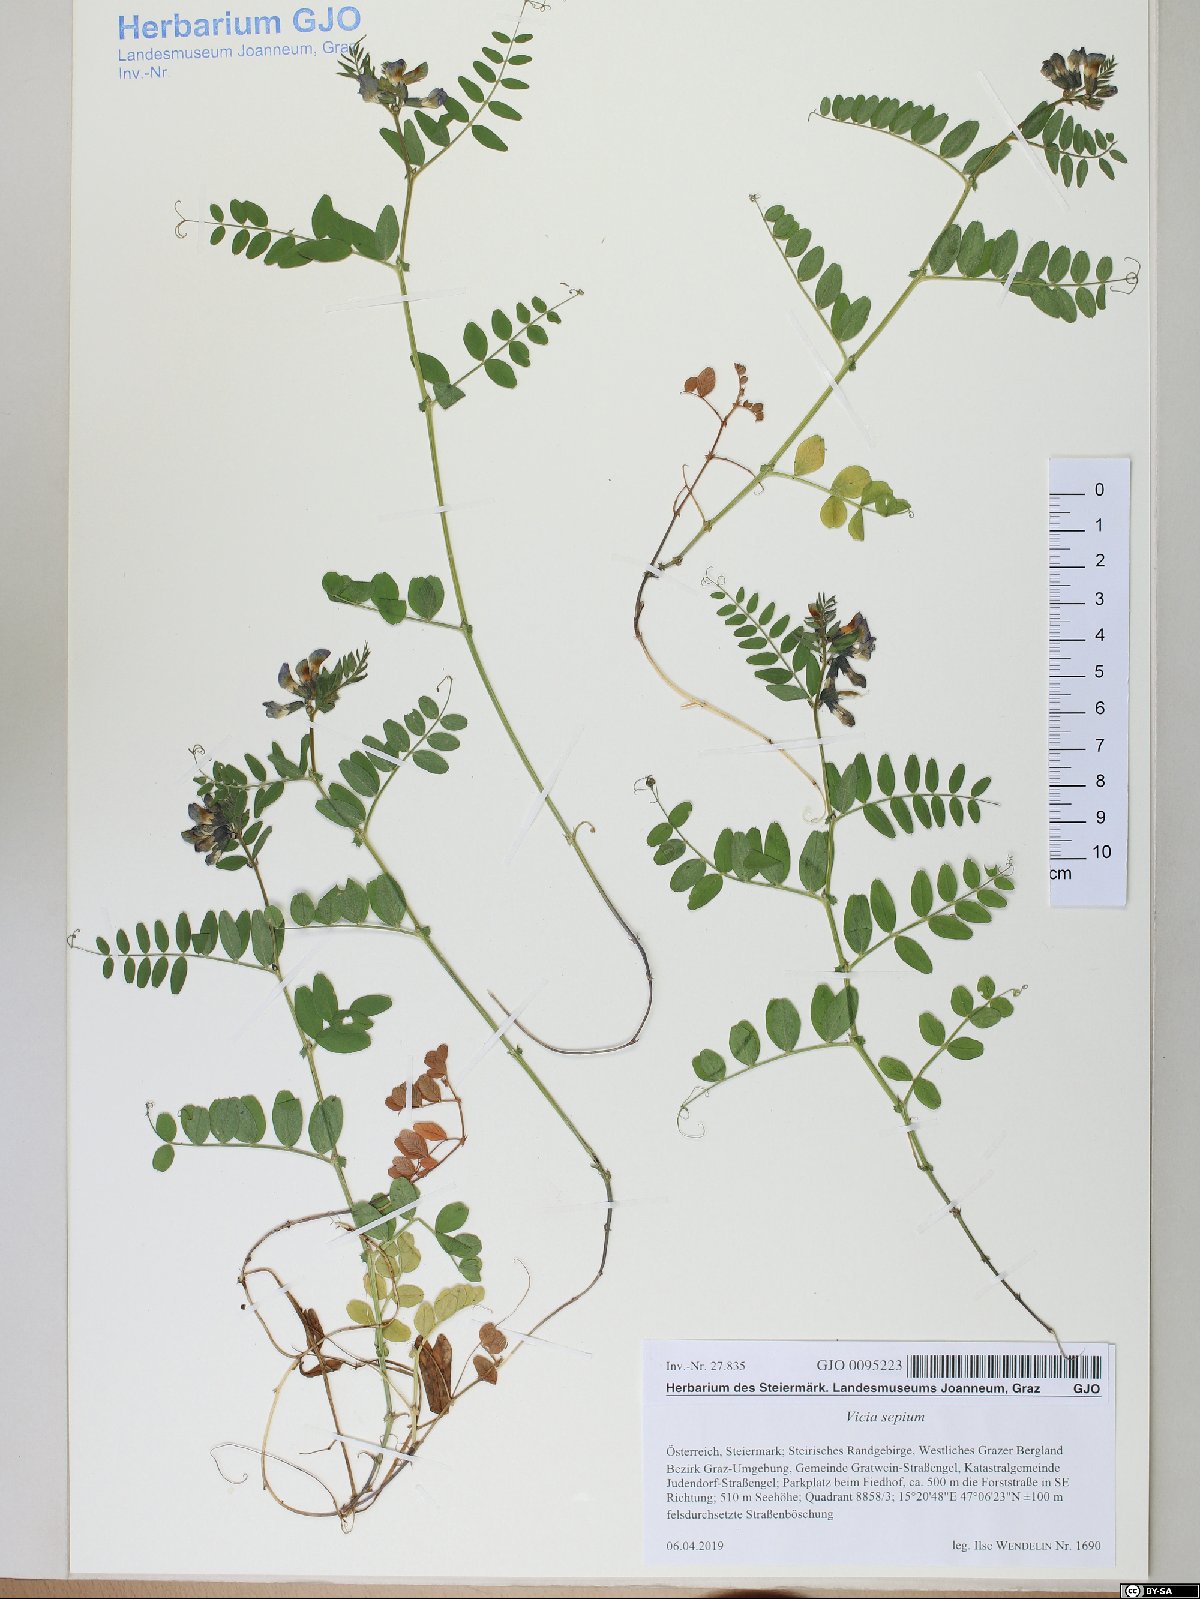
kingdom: Plantae
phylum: Tracheophyta
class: Magnoliopsida
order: Fabales
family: Fabaceae
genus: Vicia
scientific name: Vicia sepium
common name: Bush vetch
